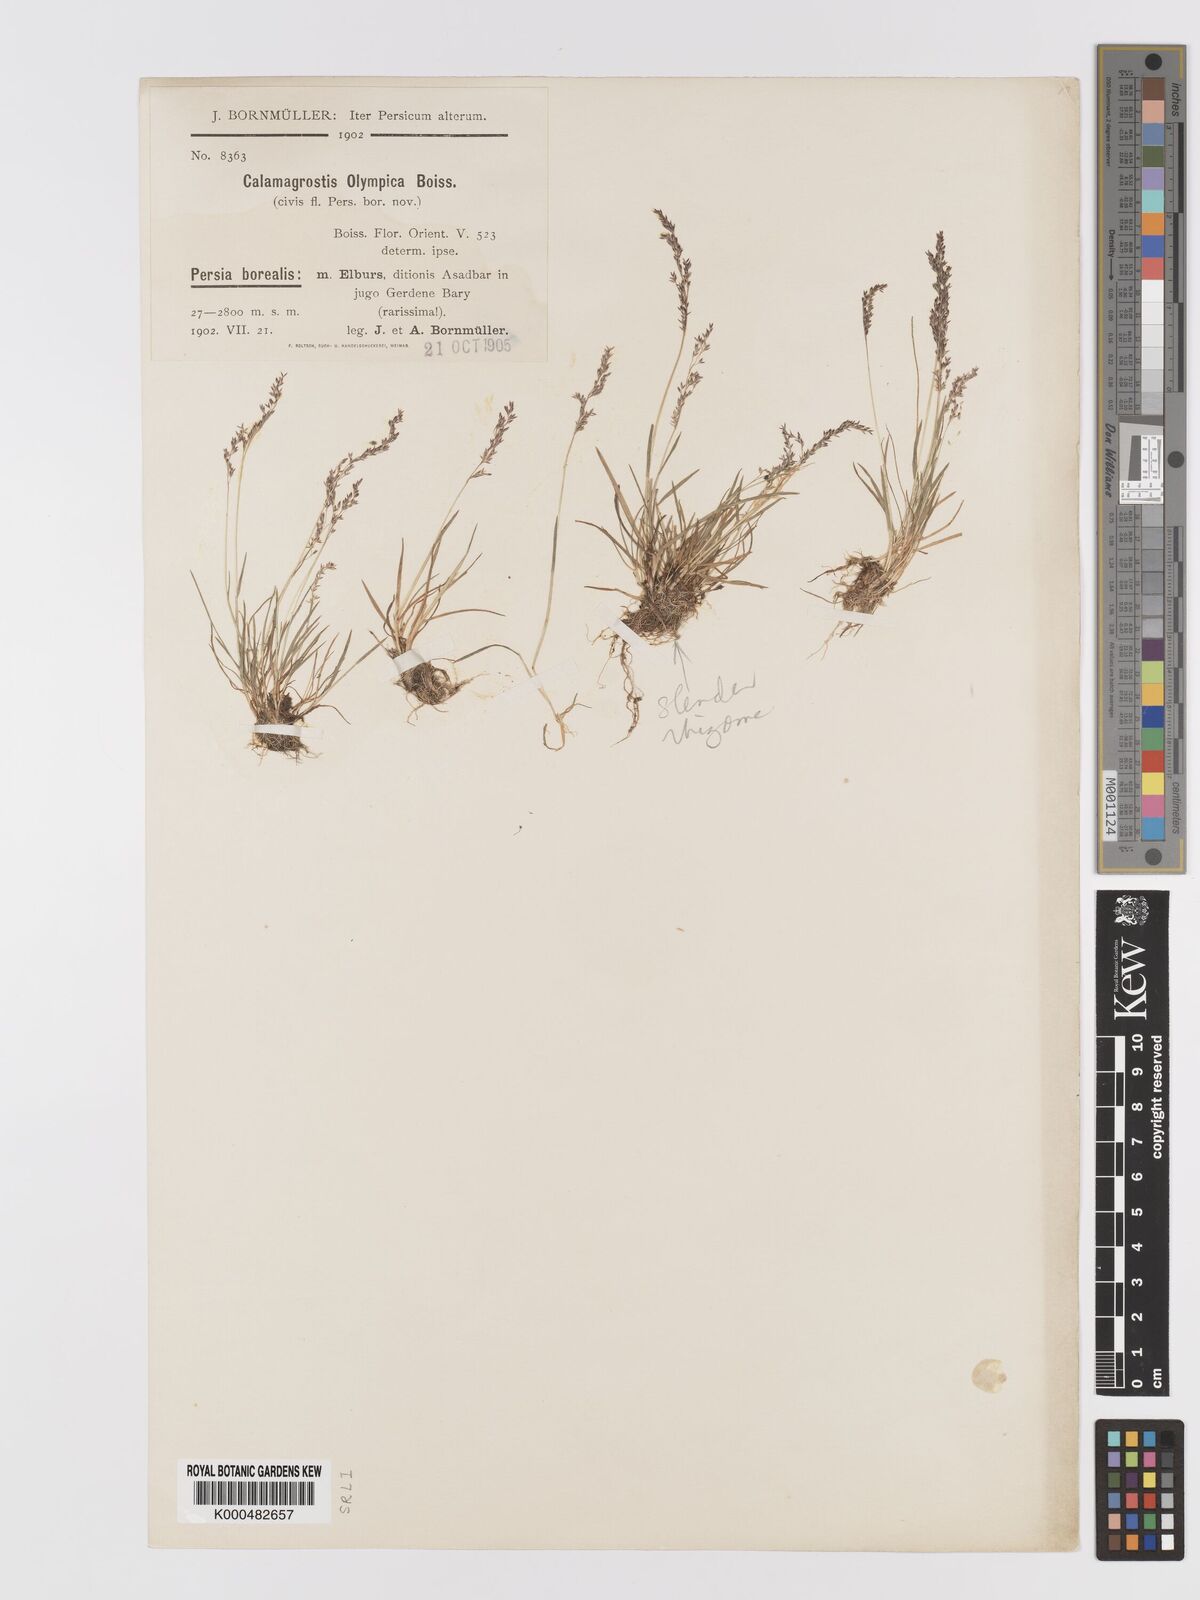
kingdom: Plantae
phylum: Tracheophyta
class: Liliopsida
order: Poales
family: Poaceae
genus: Agrostis
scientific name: Agrostis olympica
